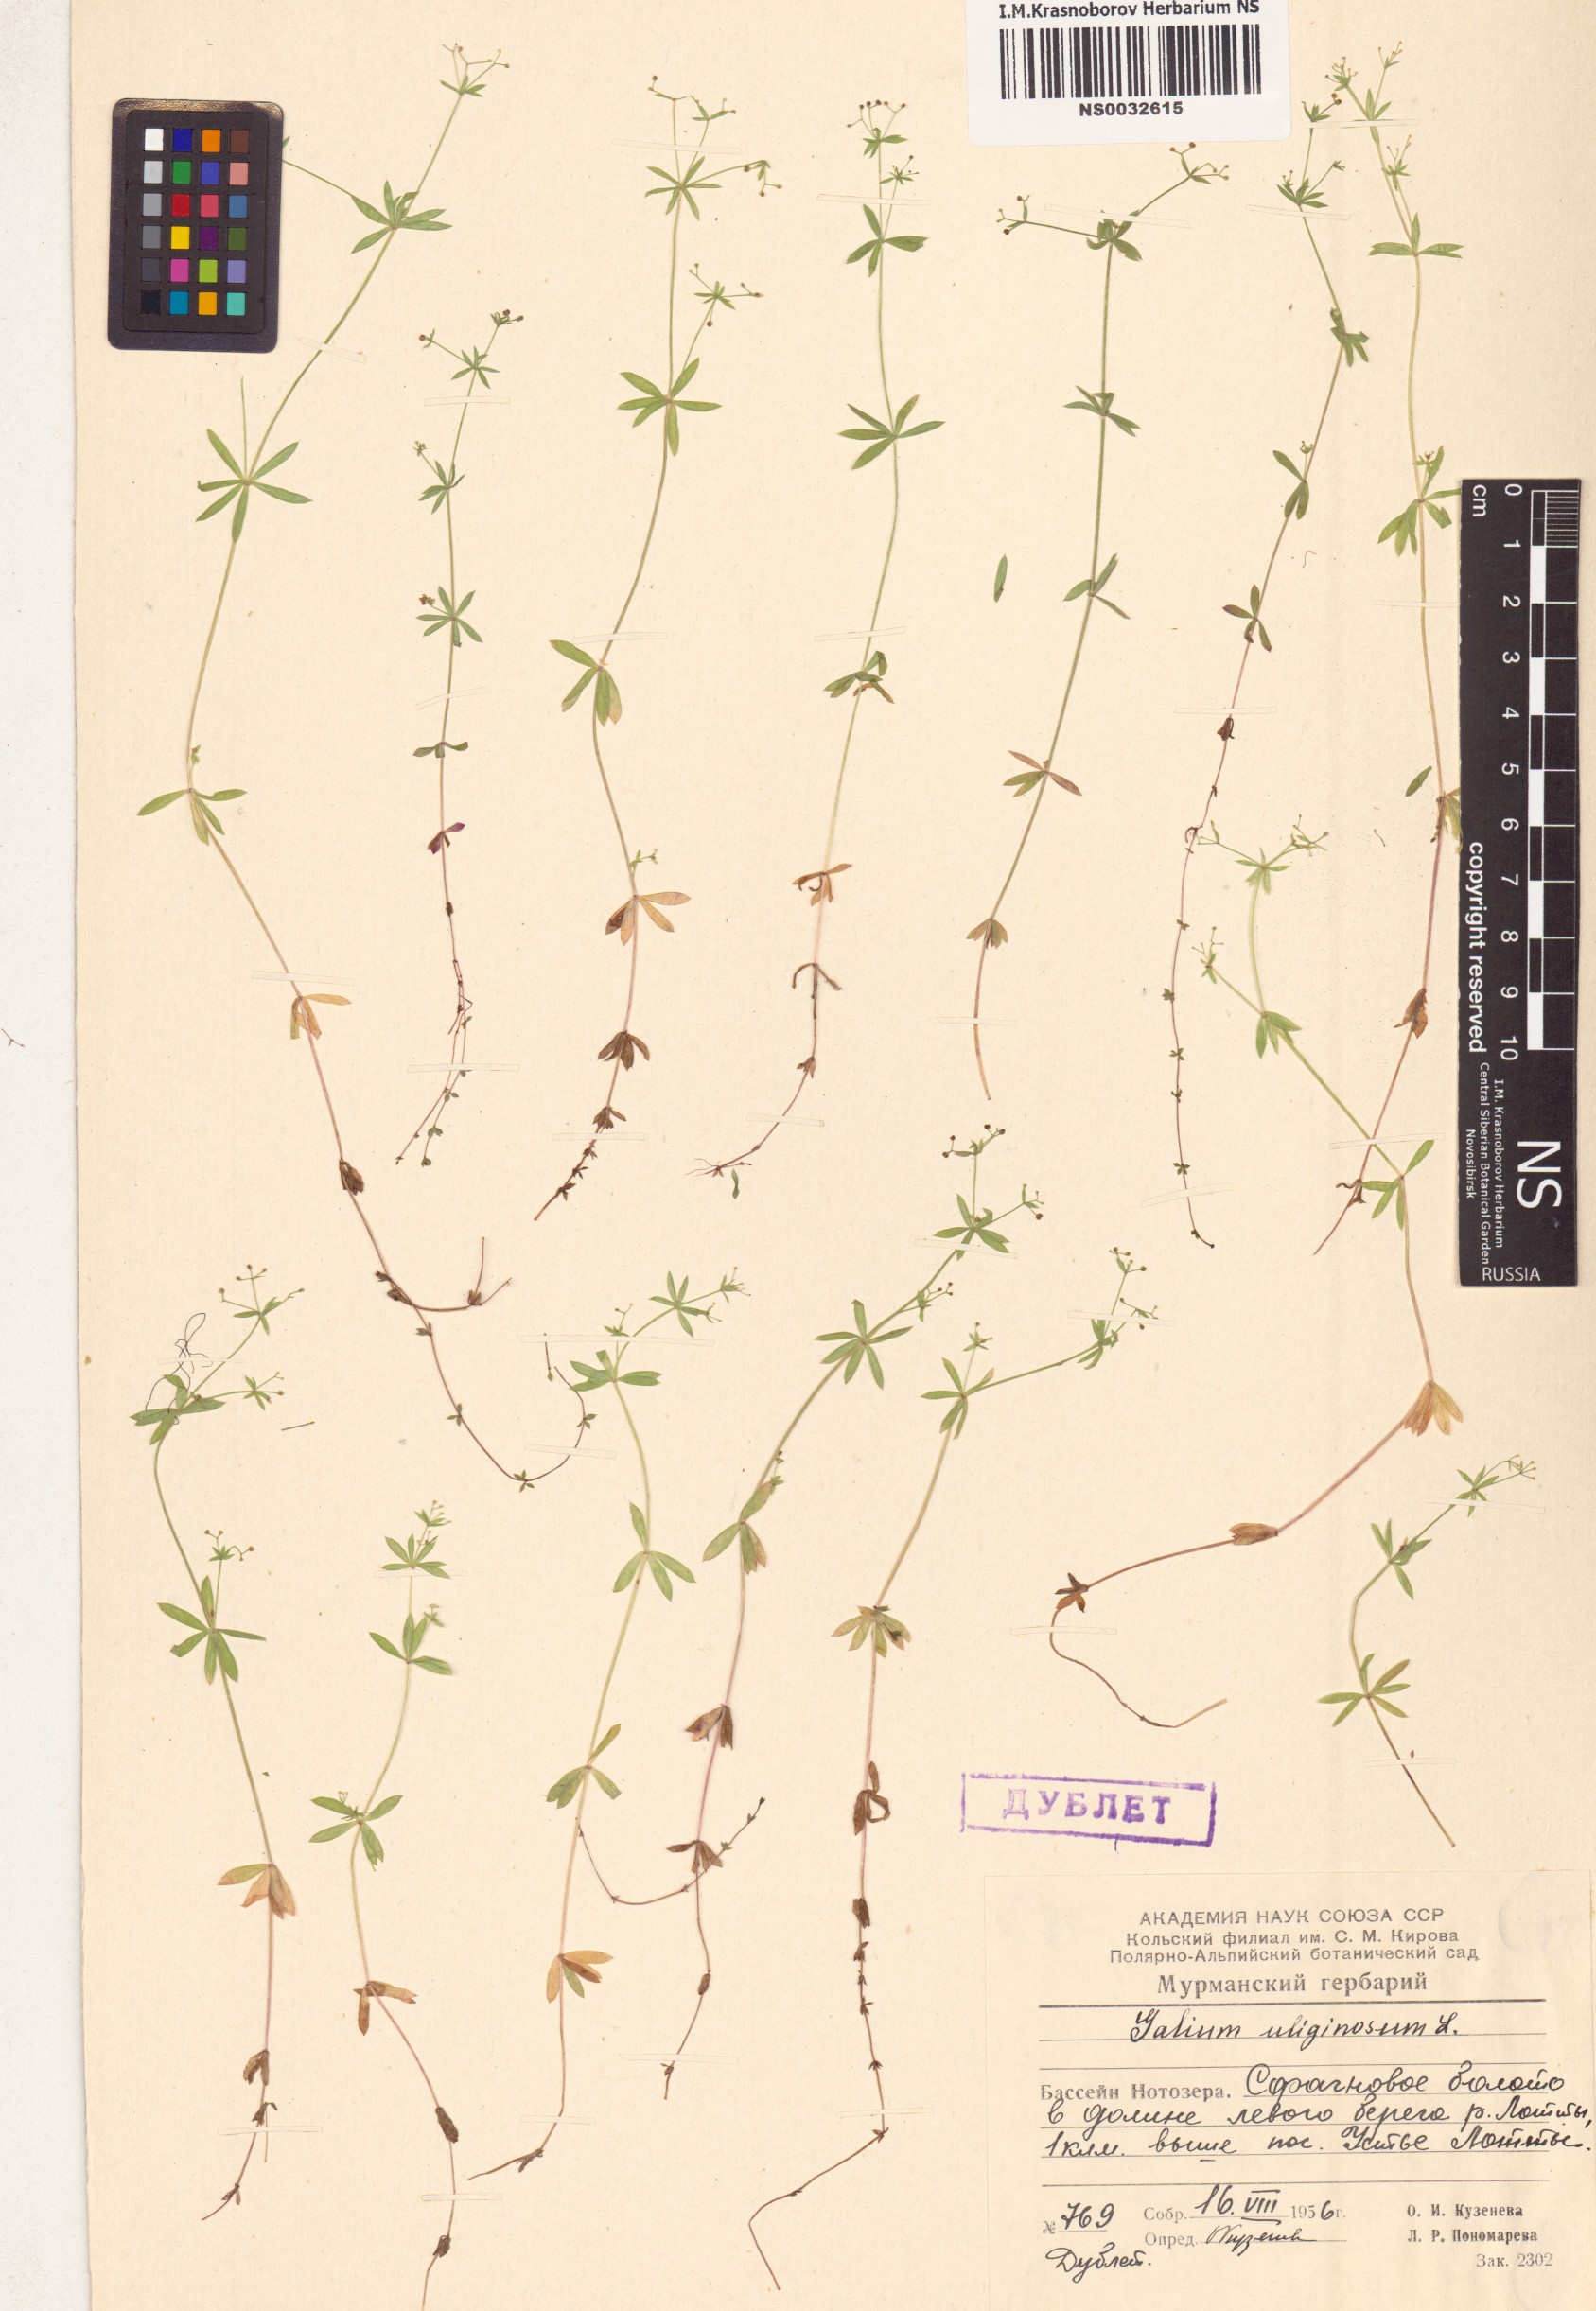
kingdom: Plantae
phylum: Tracheophyta
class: Magnoliopsida
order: Gentianales
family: Rubiaceae
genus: Galium
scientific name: Galium uliginosum
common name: Fen bedstraw
